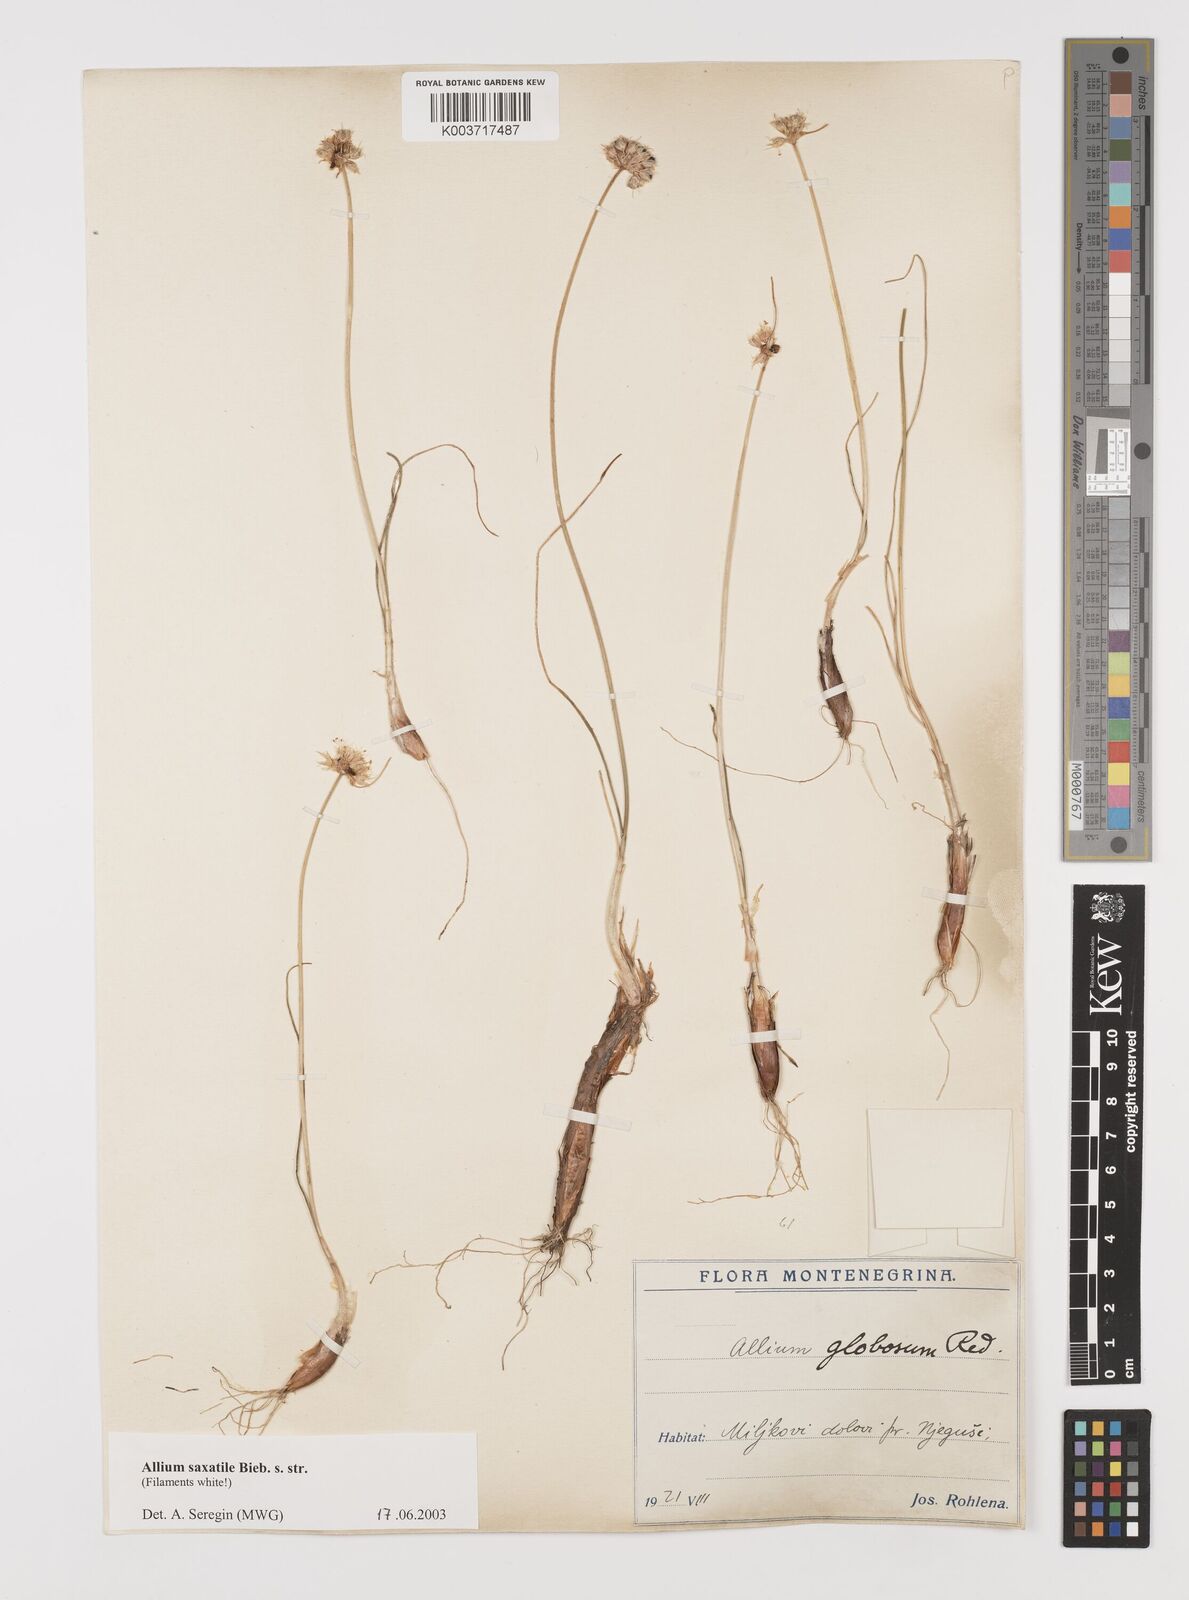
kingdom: Plantae
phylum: Tracheophyta
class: Liliopsida
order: Asparagales
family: Amaryllidaceae
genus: Allium
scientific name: Allium saxatile
